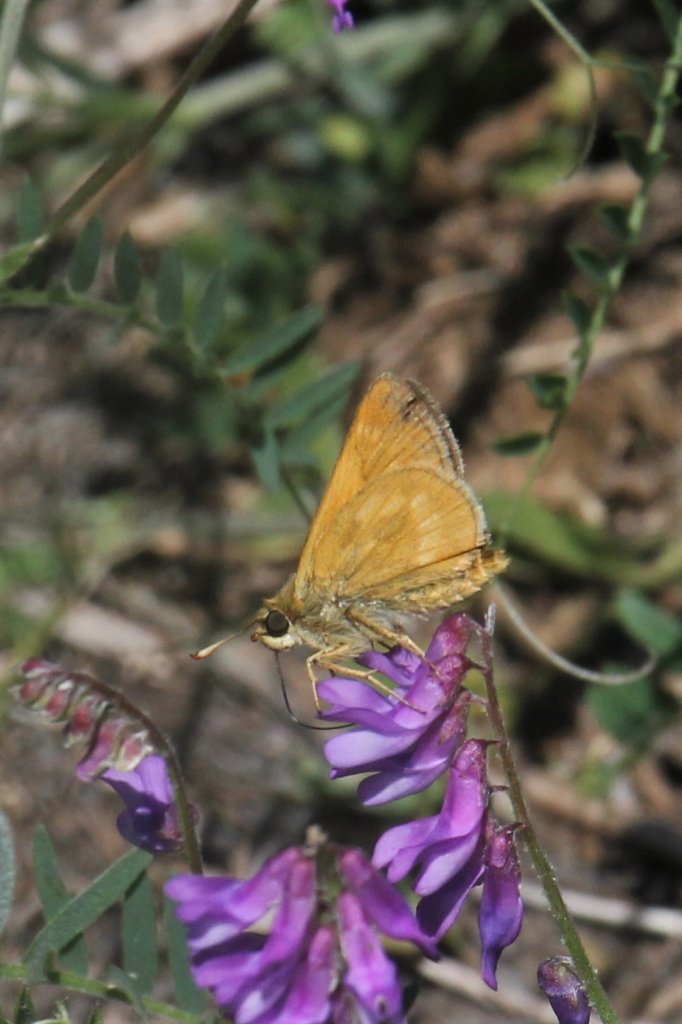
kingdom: Animalia
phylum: Arthropoda
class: Insecta
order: Lepidoptera
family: Hesperiidae
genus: Polites
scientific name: Polites
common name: Long Dash Skipper
